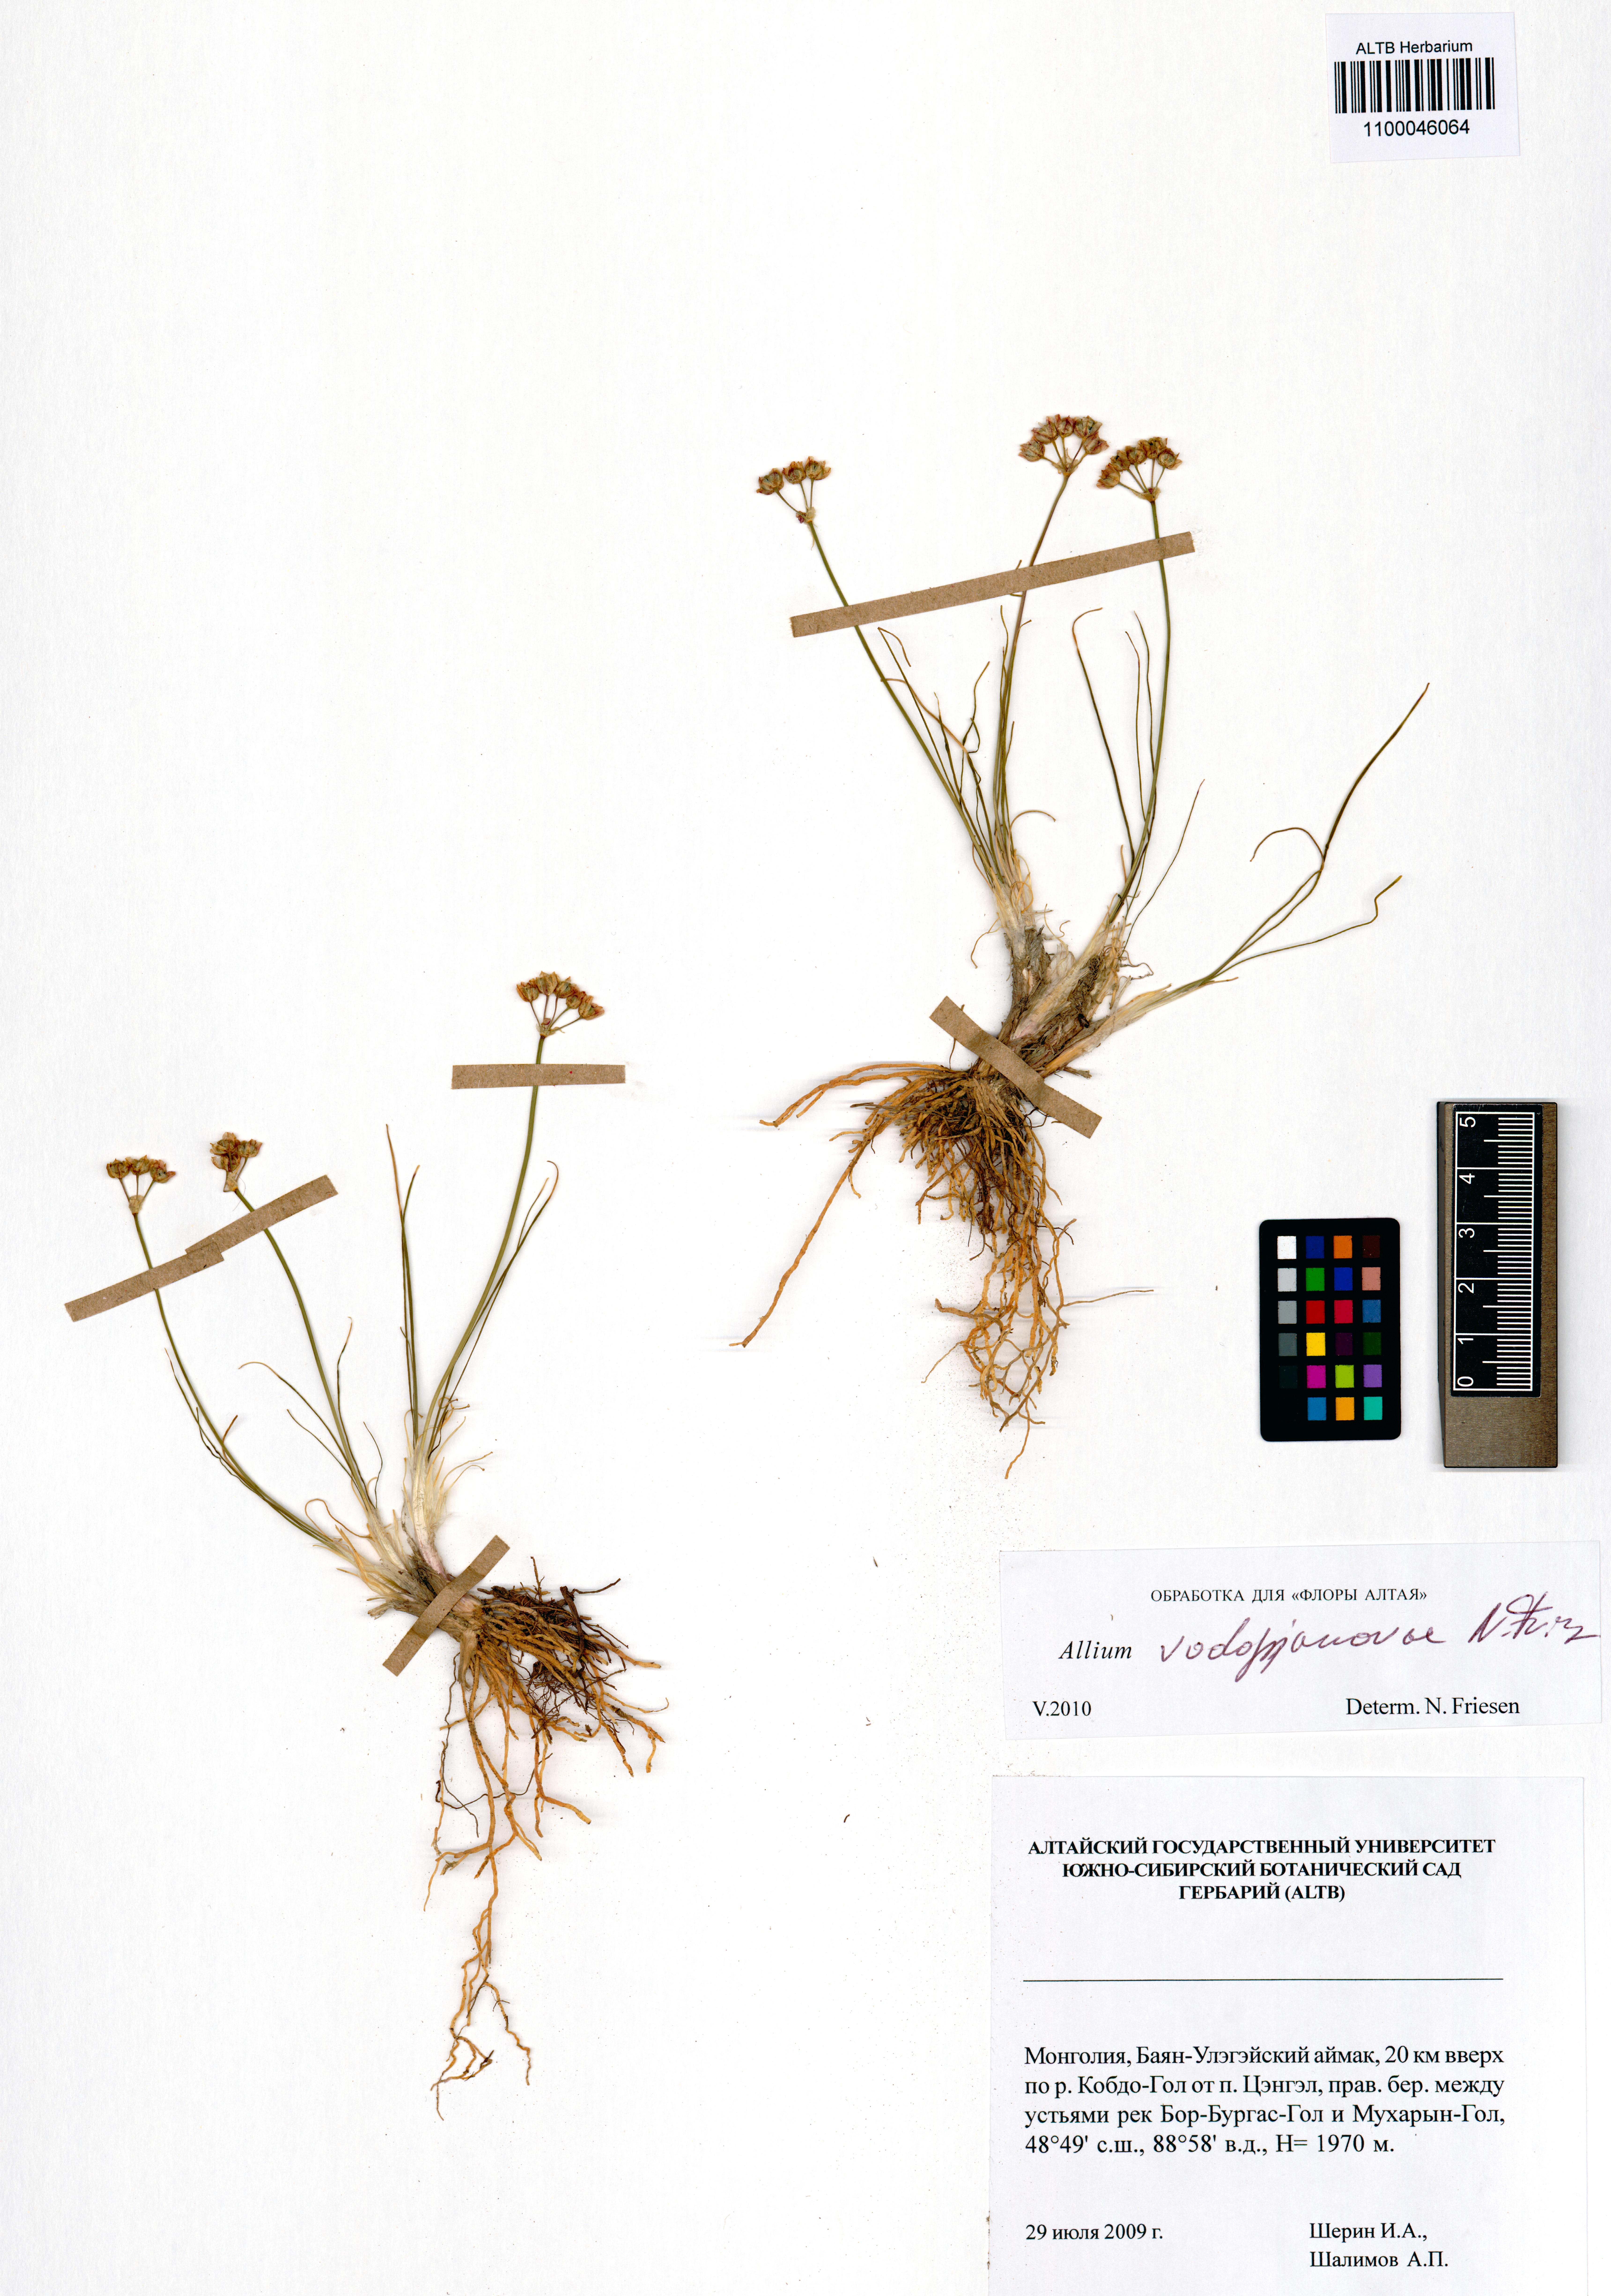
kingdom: Plantae
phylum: Tracheophyta
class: Liliopsida
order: Asparagales
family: Amaryllidaceae
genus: Allium
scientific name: Allium vodopjanovae
